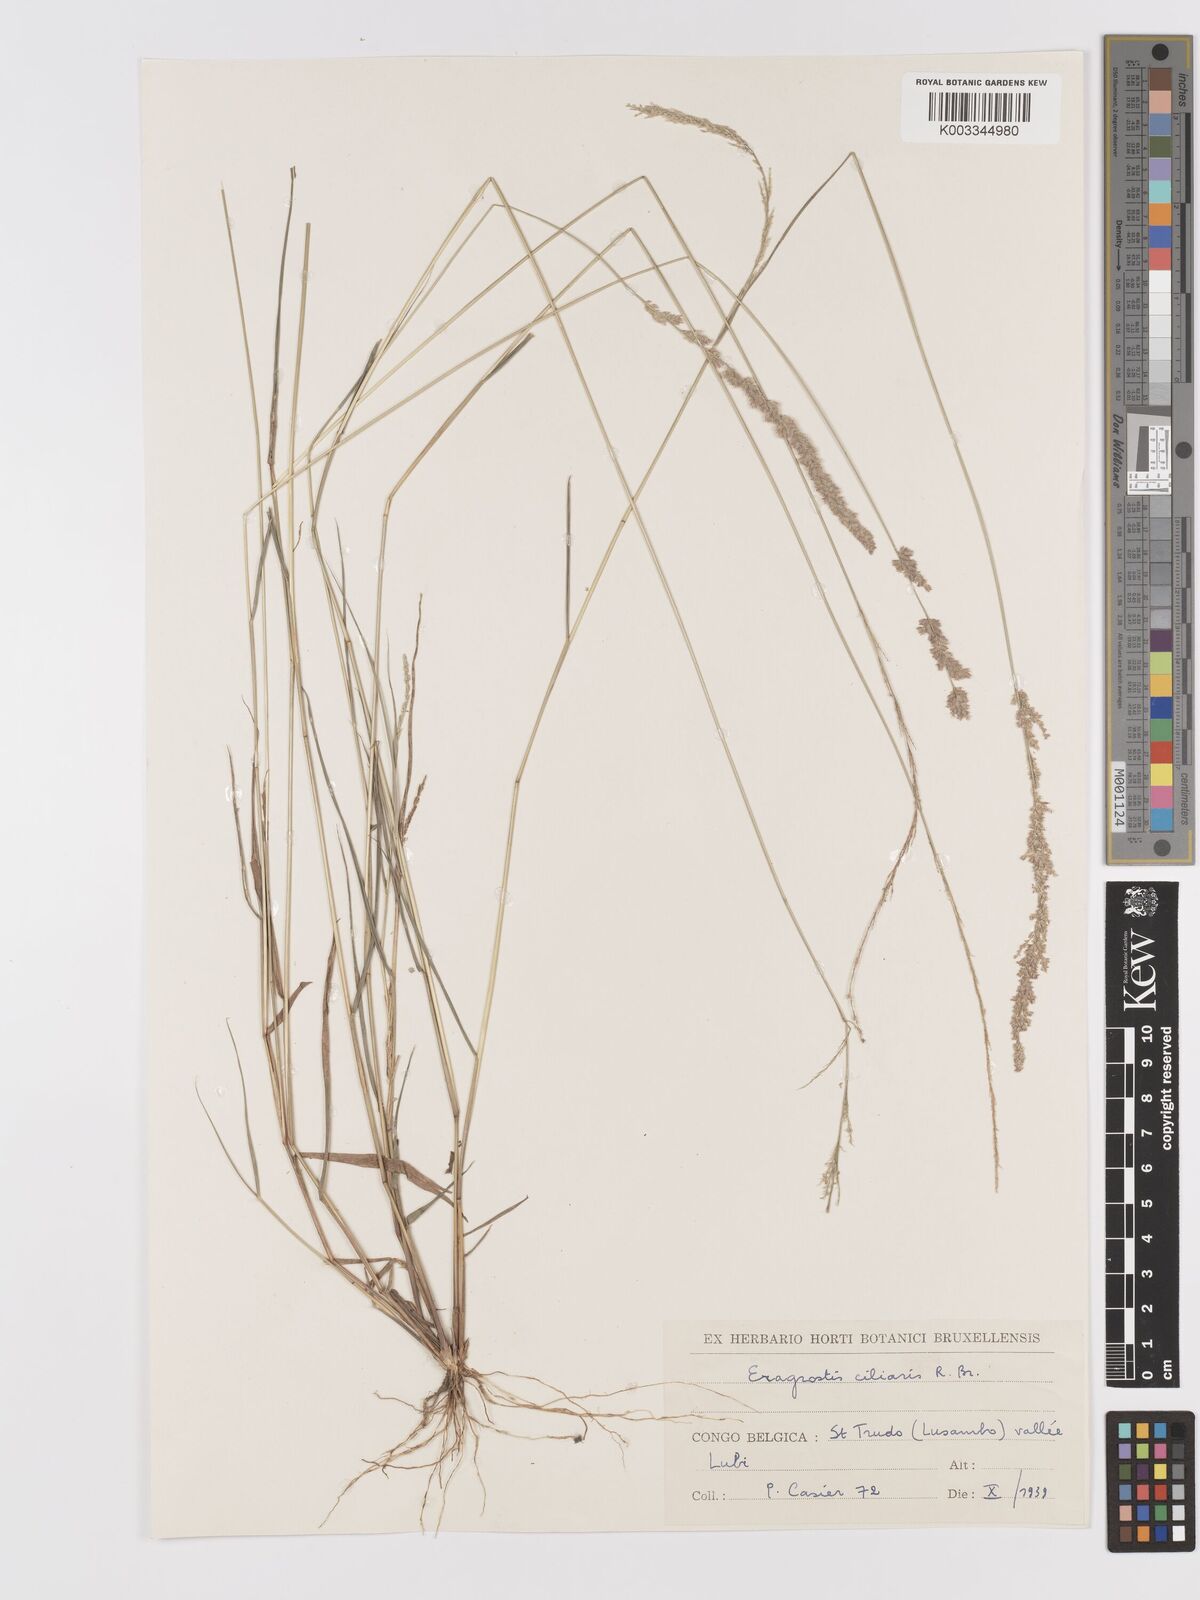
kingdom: Plantae
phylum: Tracheophyta
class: Liliopsida
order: Poales
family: Poaceae
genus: Eragrostis
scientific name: Eragrostis ciliaris
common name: Gophertail lovegrass
